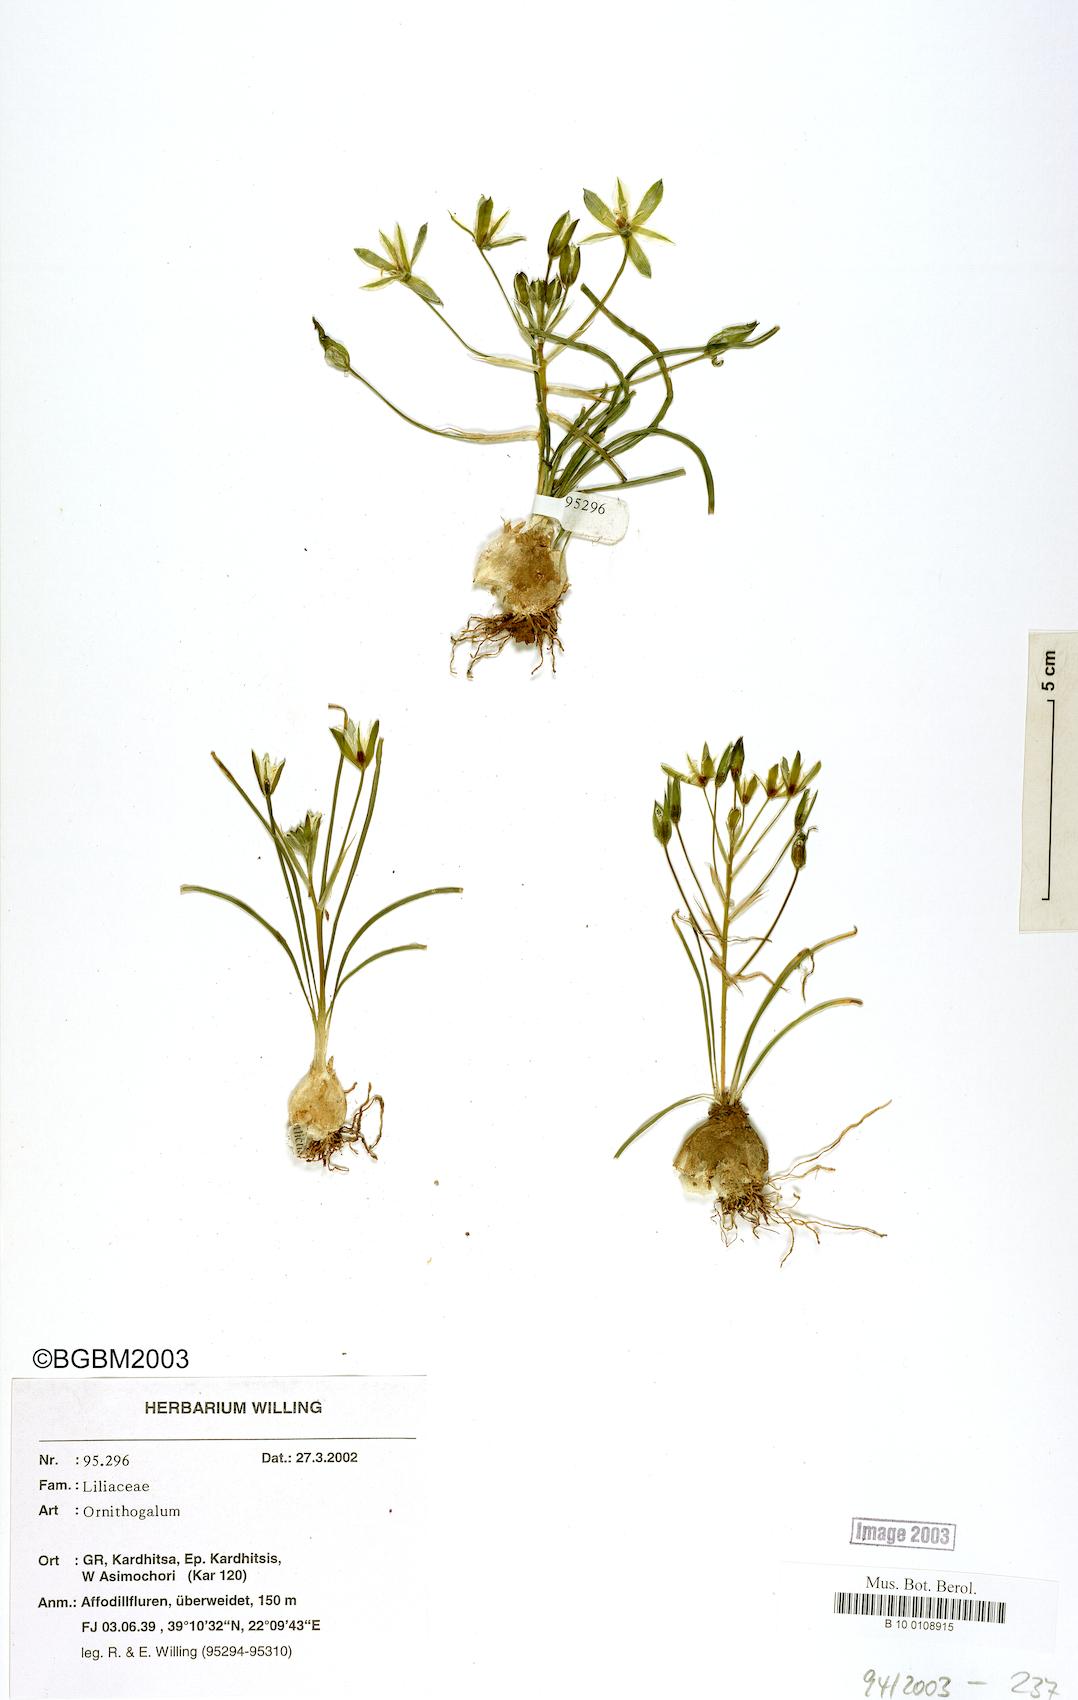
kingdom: Plantae
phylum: Tracheophyta
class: Liliopsida
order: Asparagales
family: Asparagaceae
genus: Ornithogalum
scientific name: Ornithogalum
